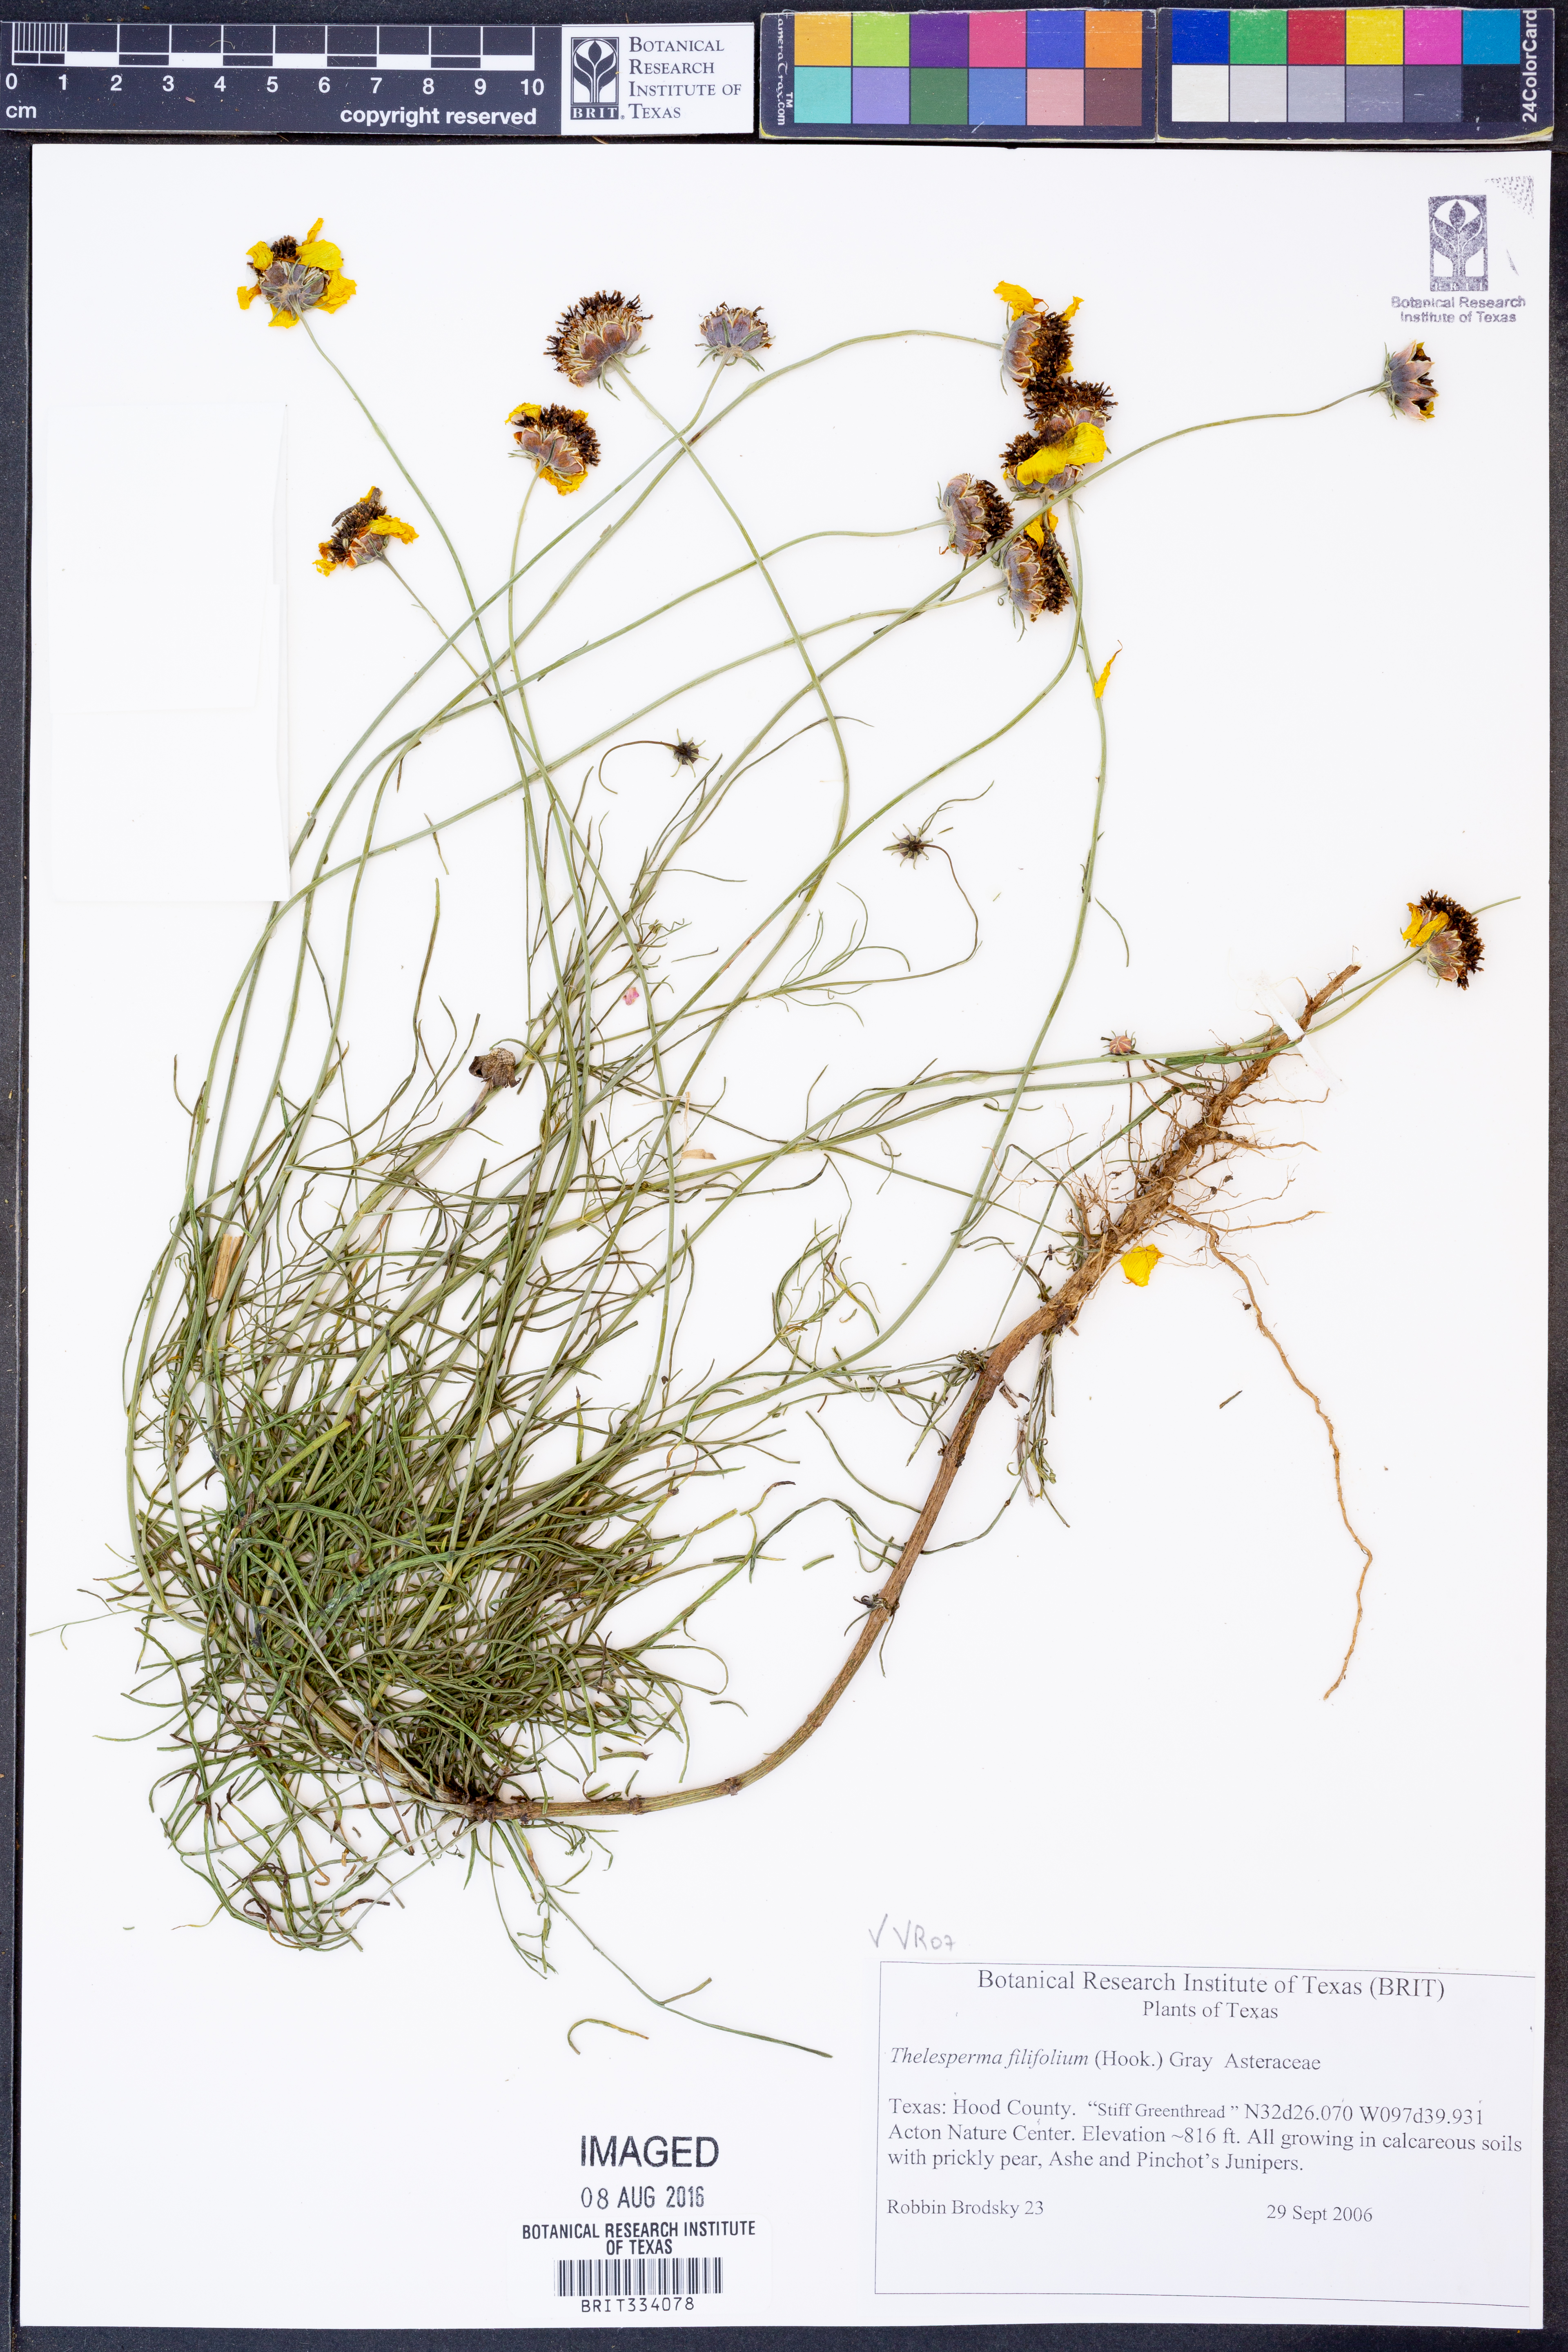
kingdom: Plantae
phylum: Tracheophyta
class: Magnoliopsida
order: Asterales
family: Asteraceae
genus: Thelesperma
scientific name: Thelesperma filifolium
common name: Stiff greenthread
